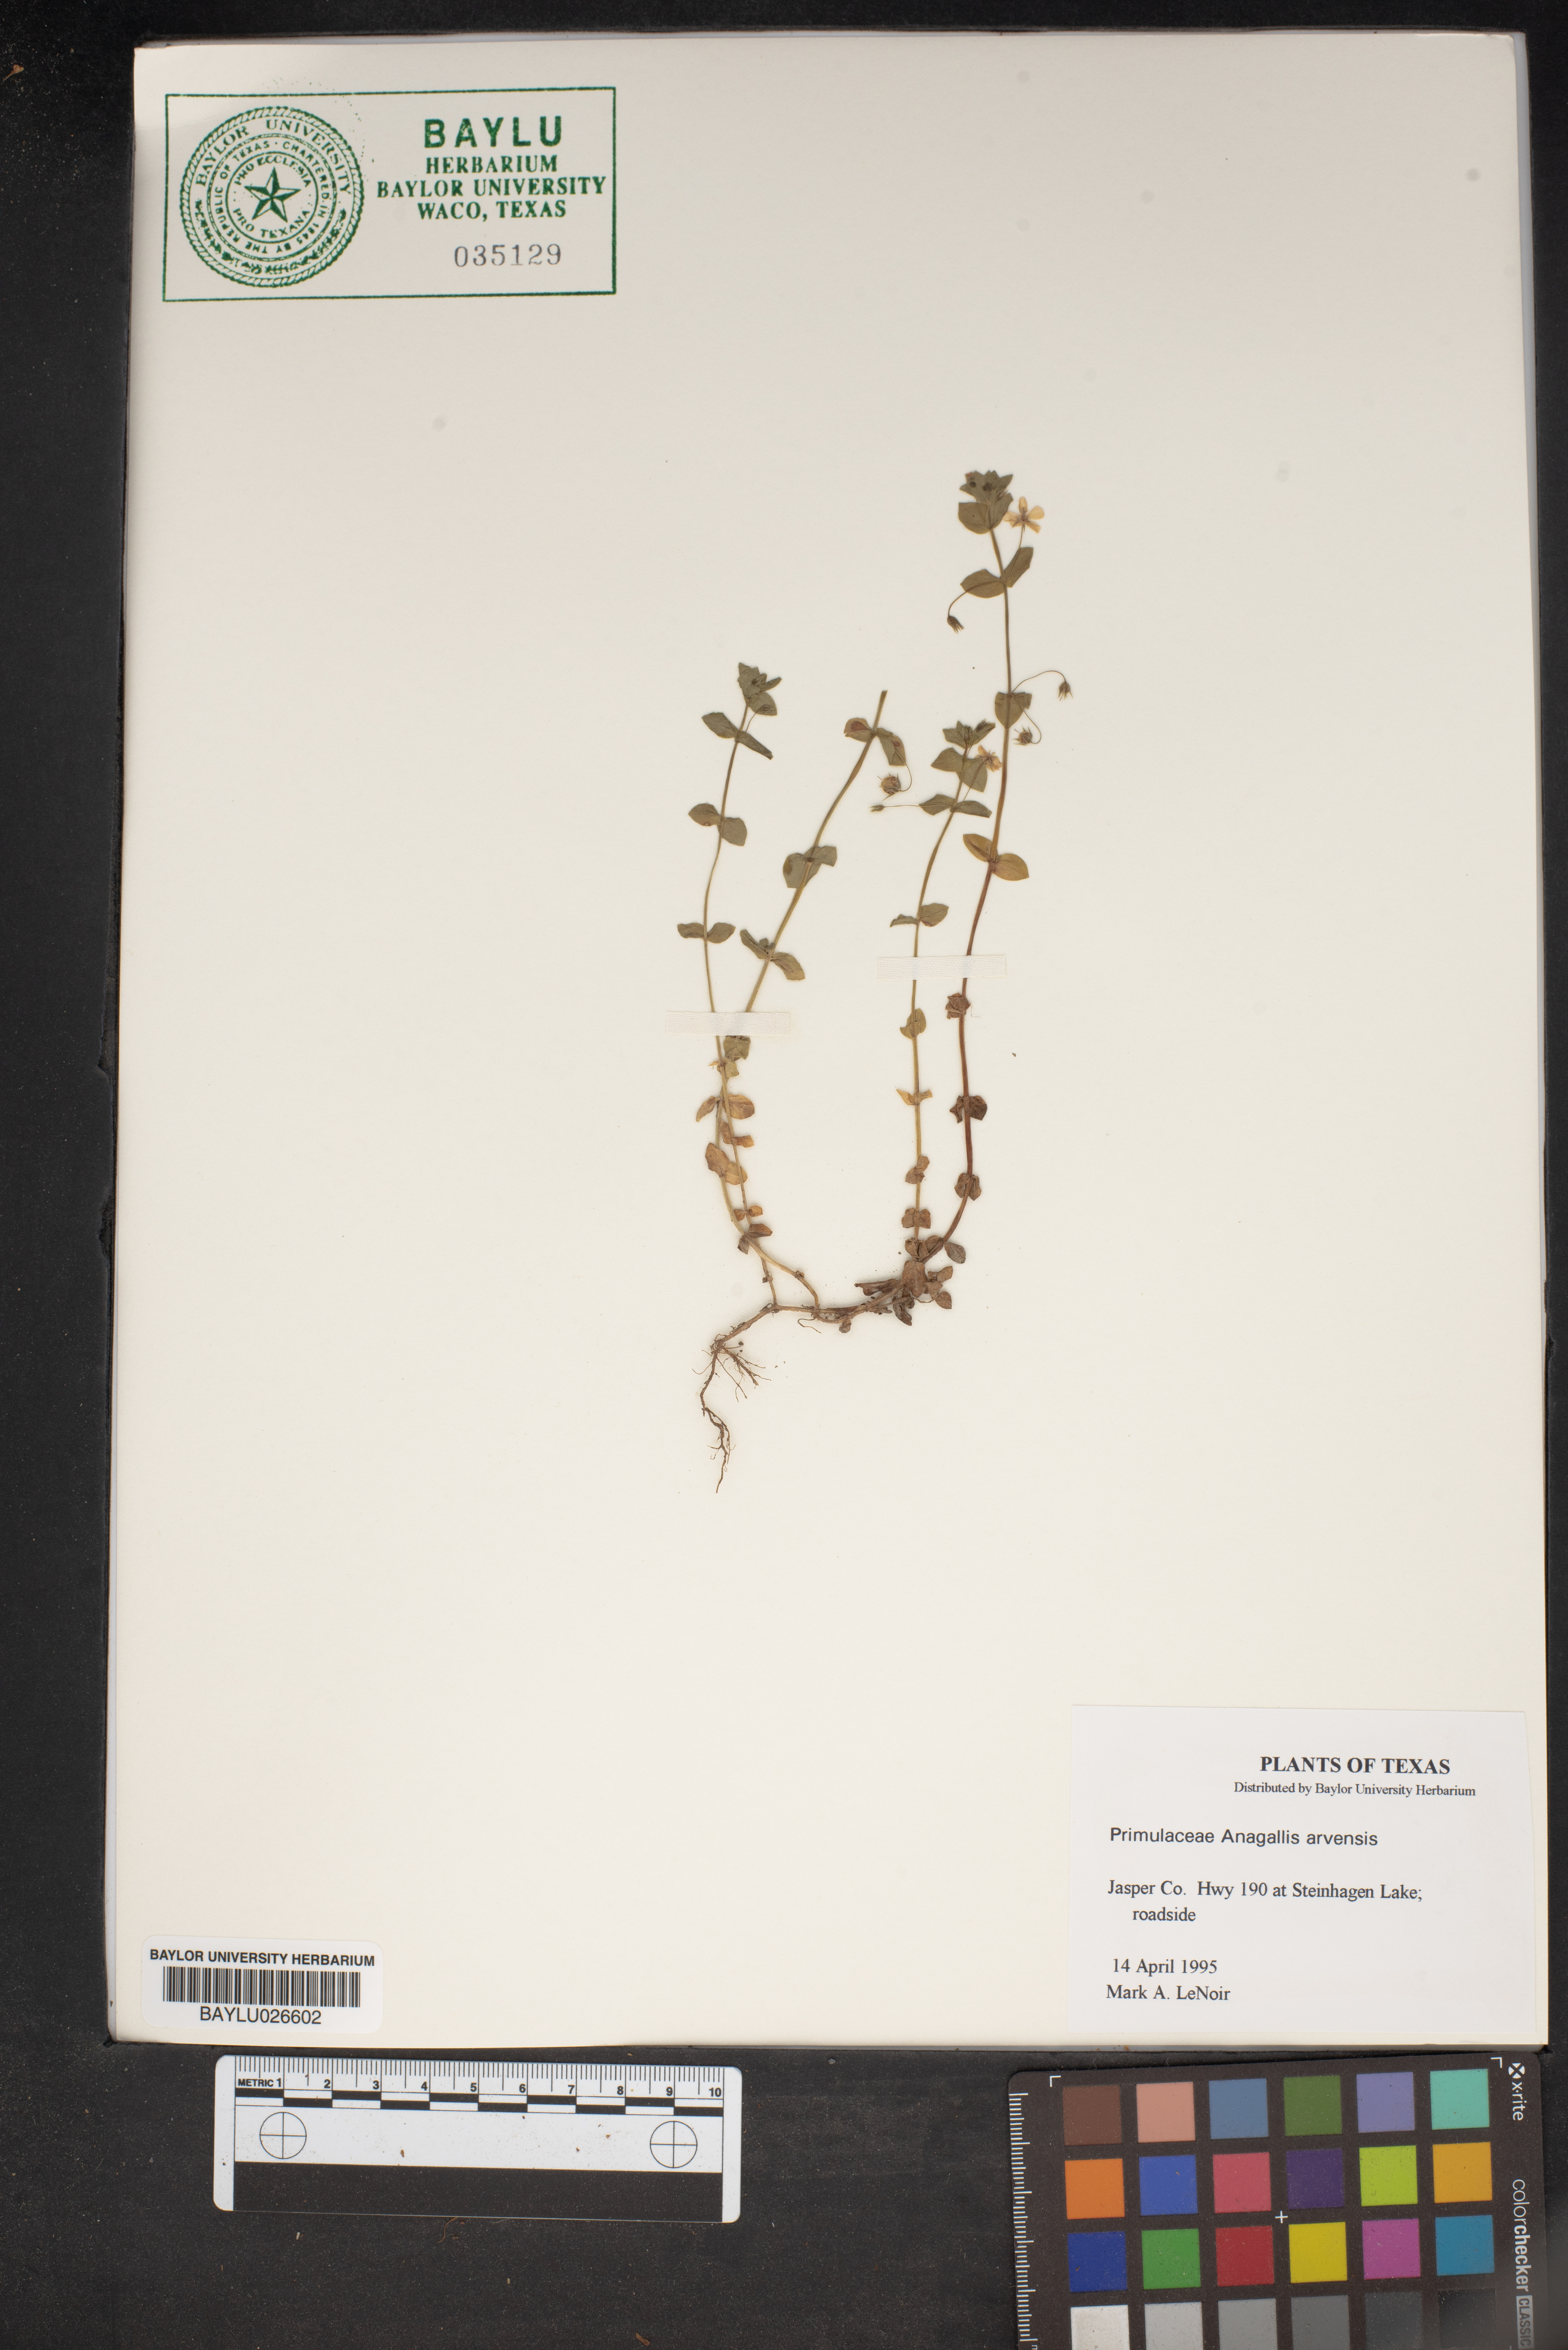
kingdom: Plantae
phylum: Tracheophyta
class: Magnoliopsida
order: Ericales
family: Primulaceae
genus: Lysimachia
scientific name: Lysimachia arvensis
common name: Scarlet pimpernel
